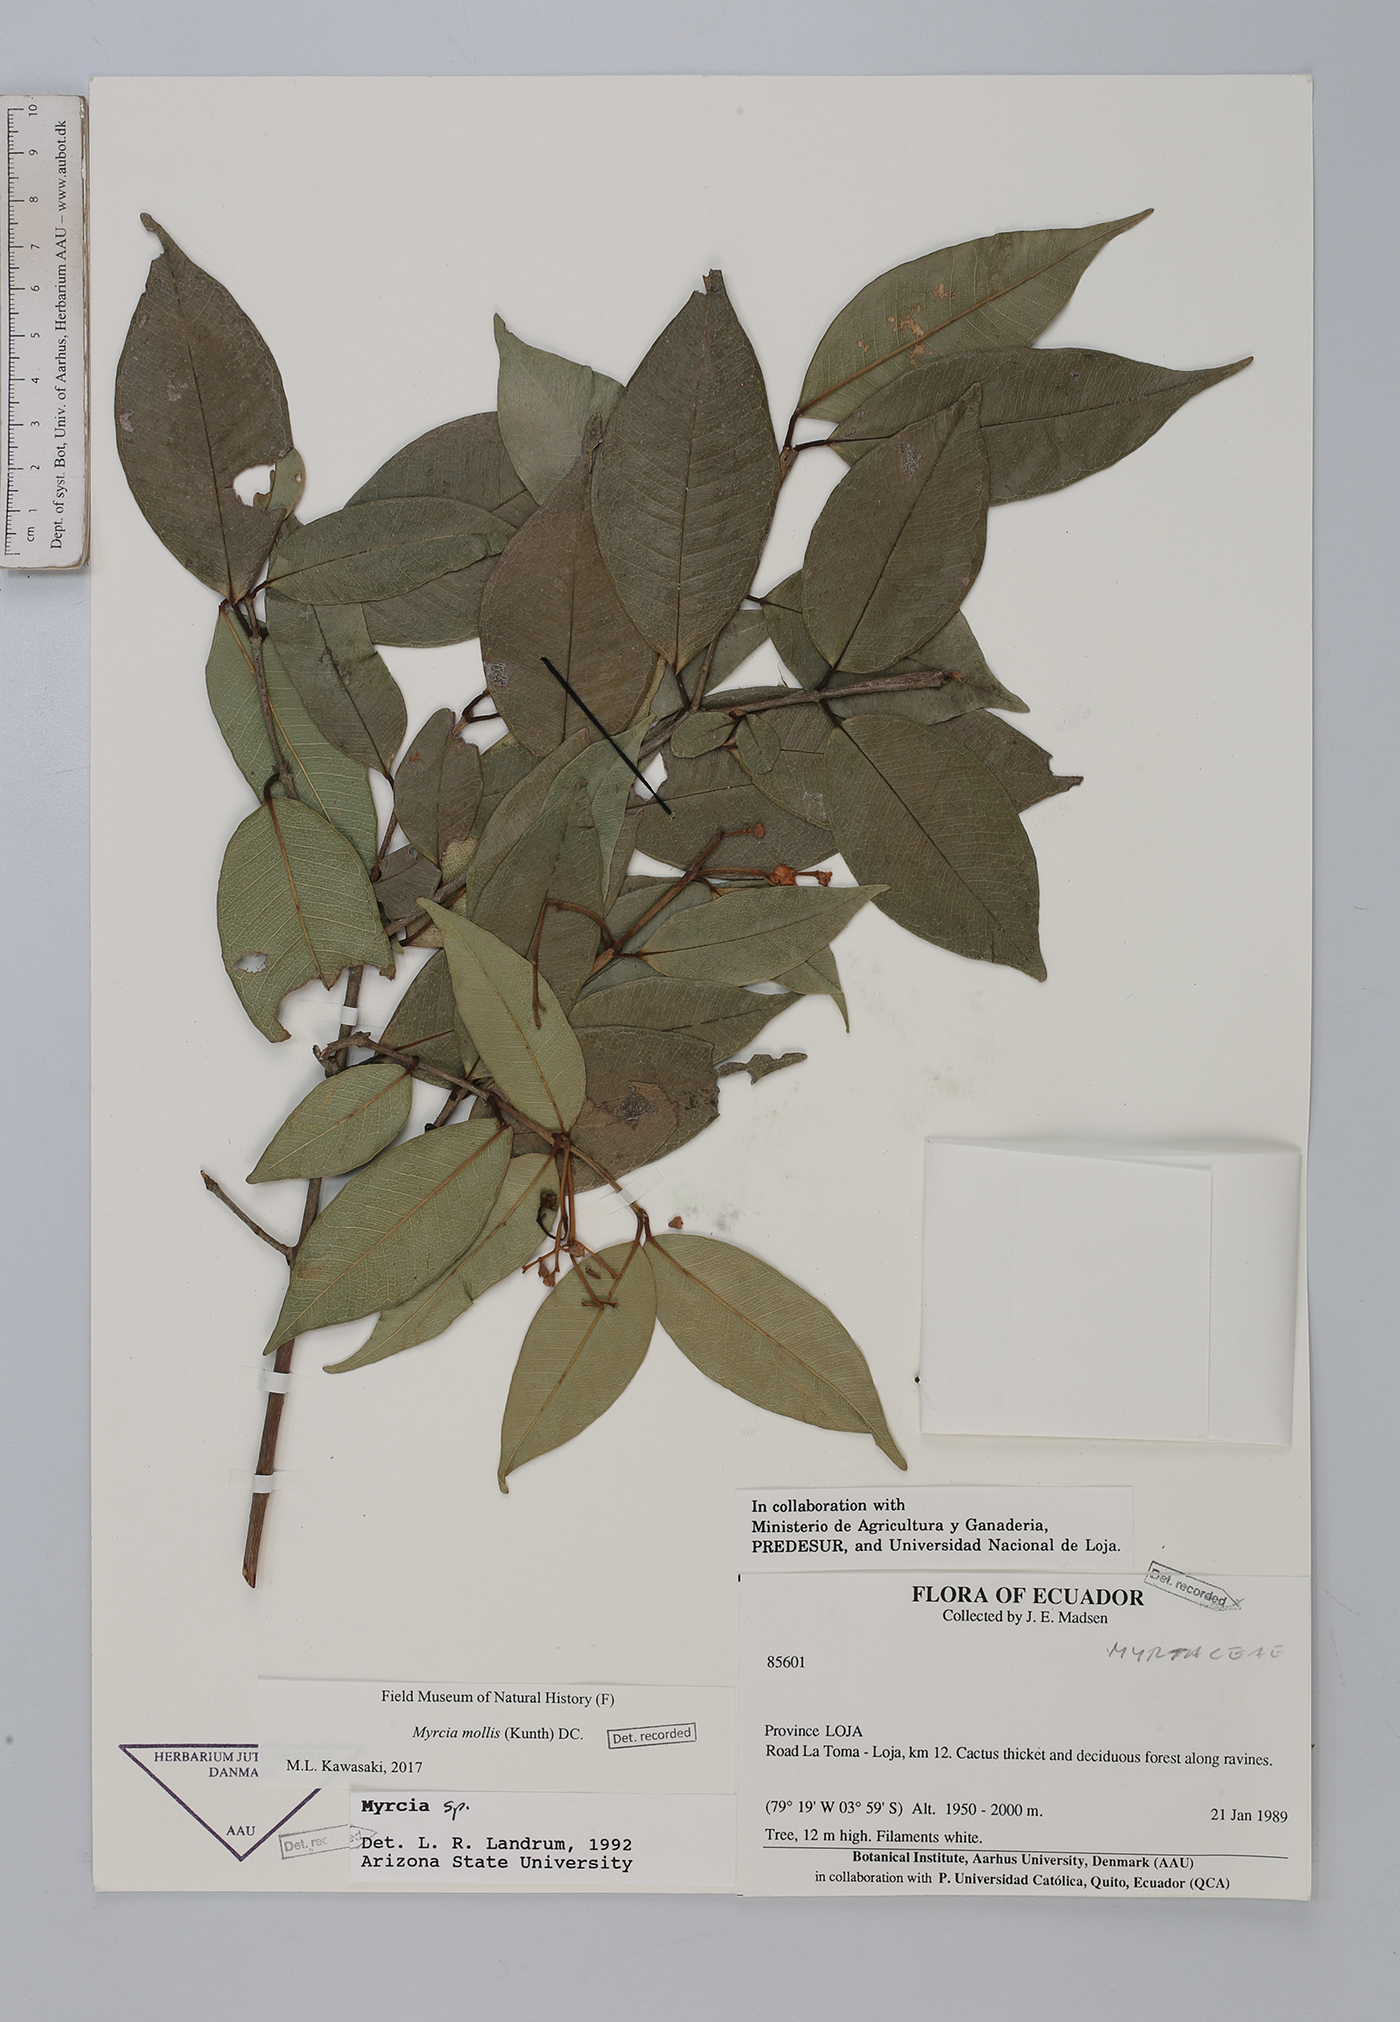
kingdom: Plantae
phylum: Tracheophyta
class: Magnoliopsida
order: Myrtales
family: Myrtaceae
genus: Myrcia
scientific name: Myrcia mollis
